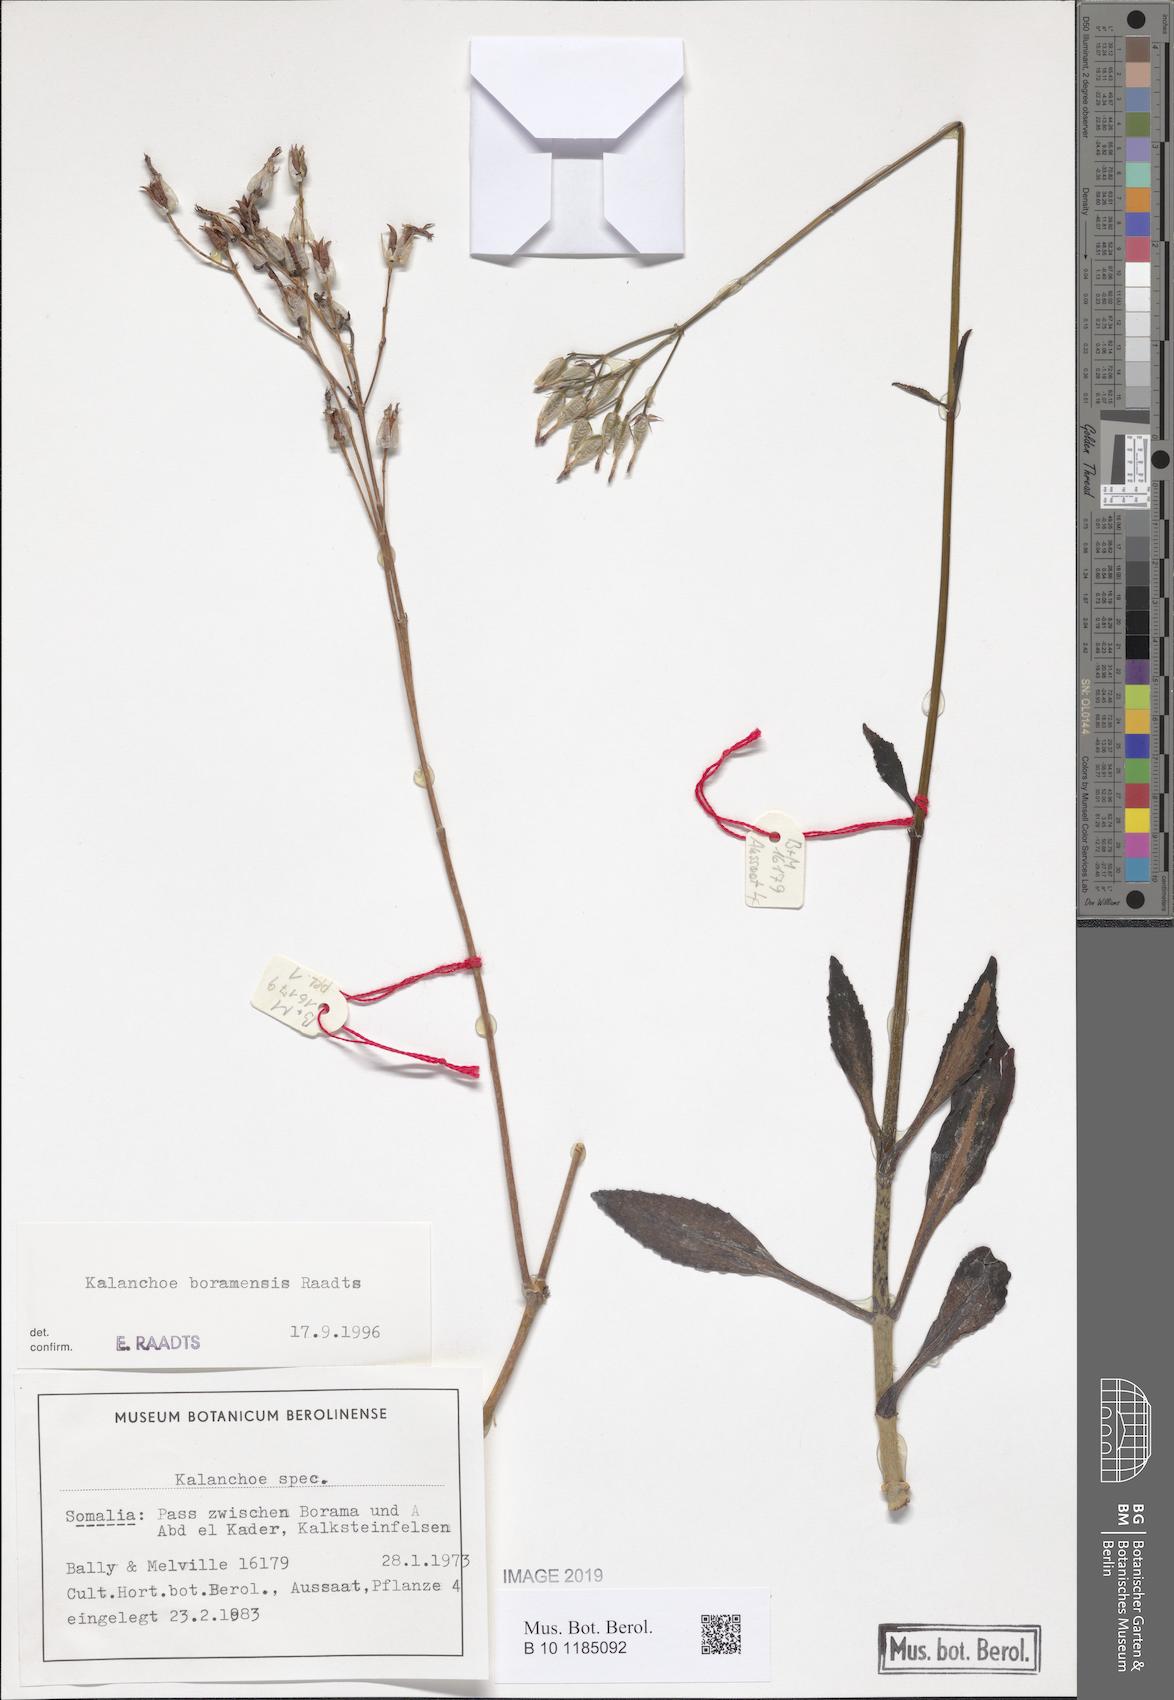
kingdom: Plantae
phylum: Tracheophyta
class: Magnoliopsida
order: Saxifragales
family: Crassulaceae
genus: Kalanchoe
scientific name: Kalanchoe
